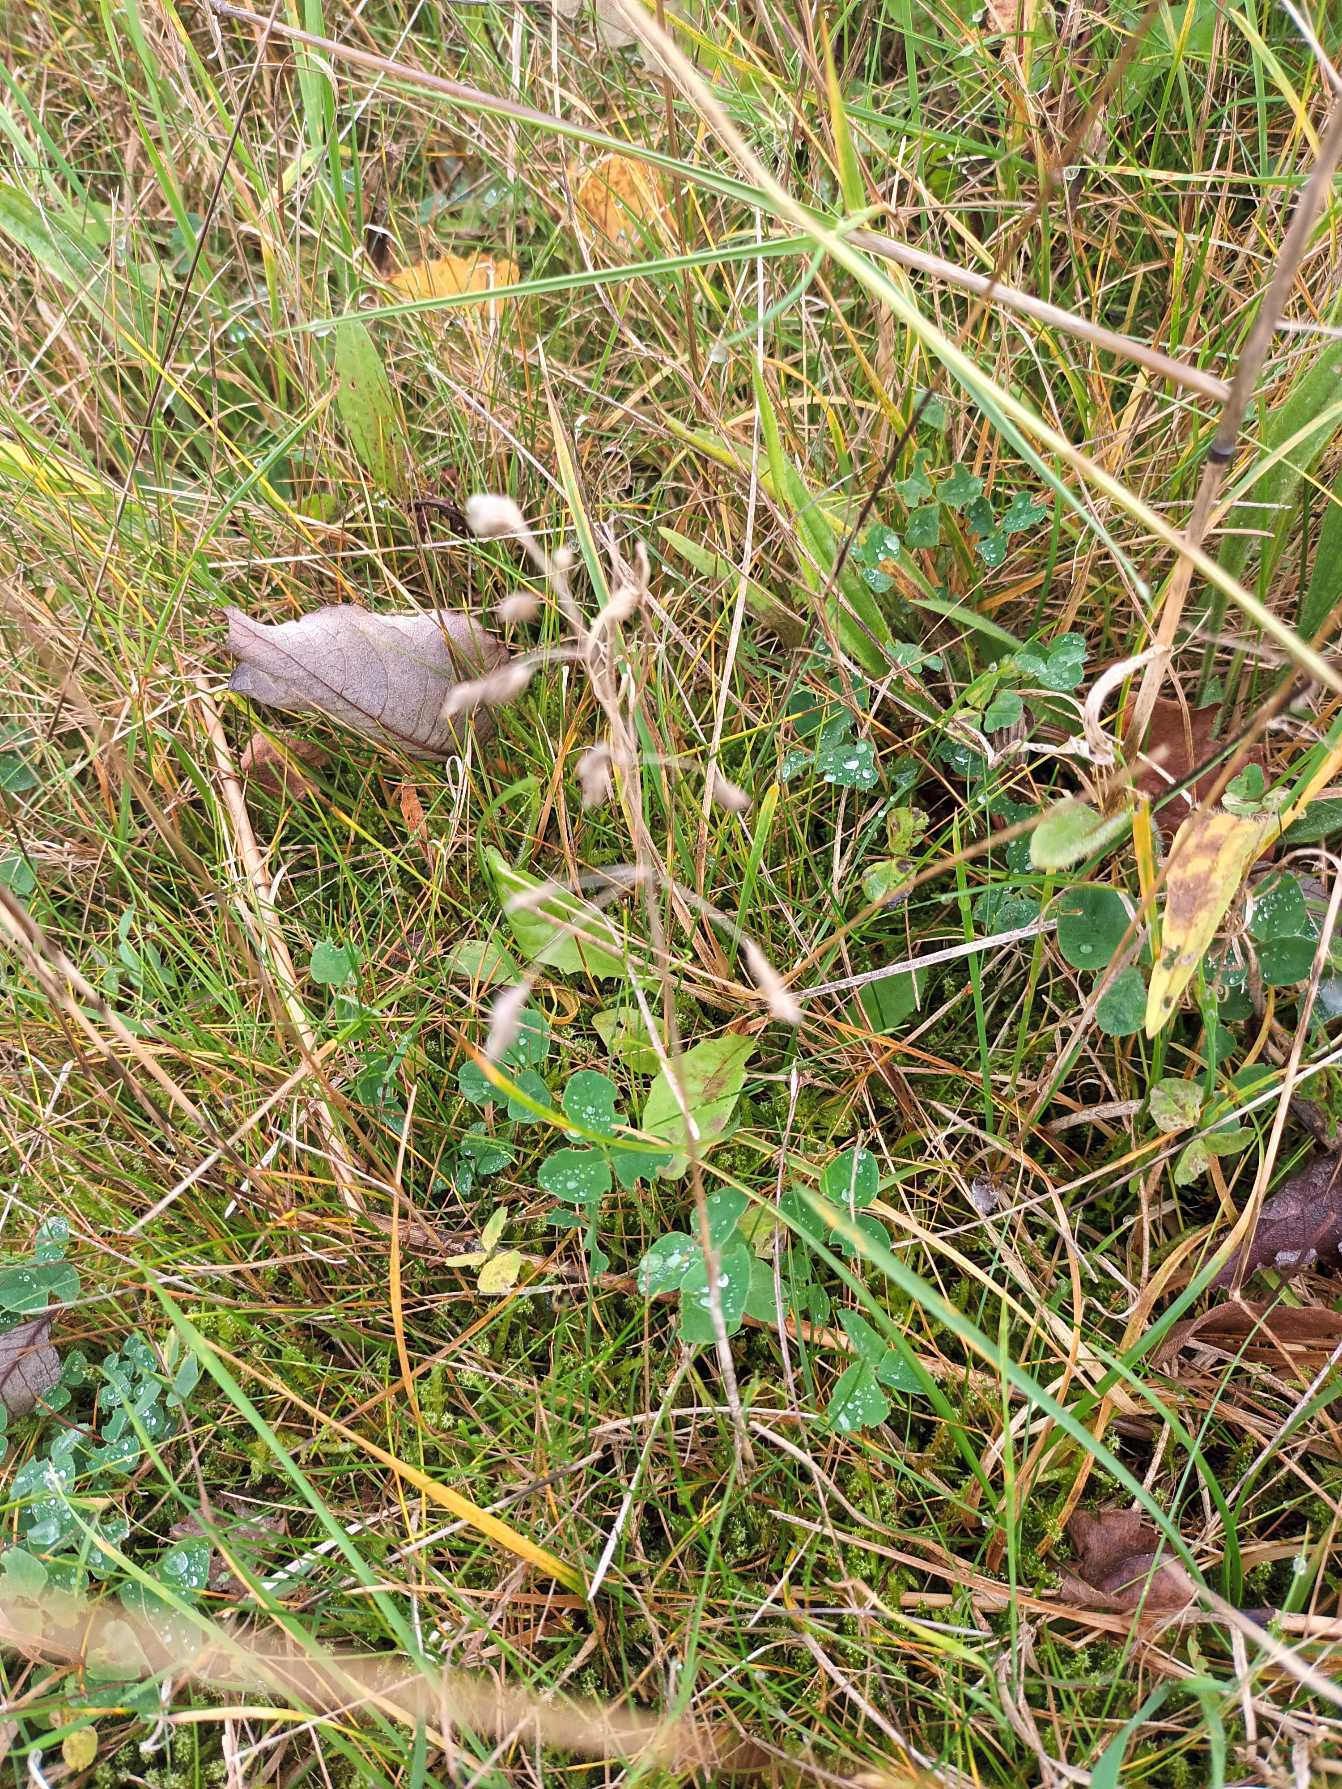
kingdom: Plantae
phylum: Tracheophyta
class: Liliopsida
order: Poales
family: Poaceae
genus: Poa
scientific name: Poa pratensis
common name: Eng-rapgræs
